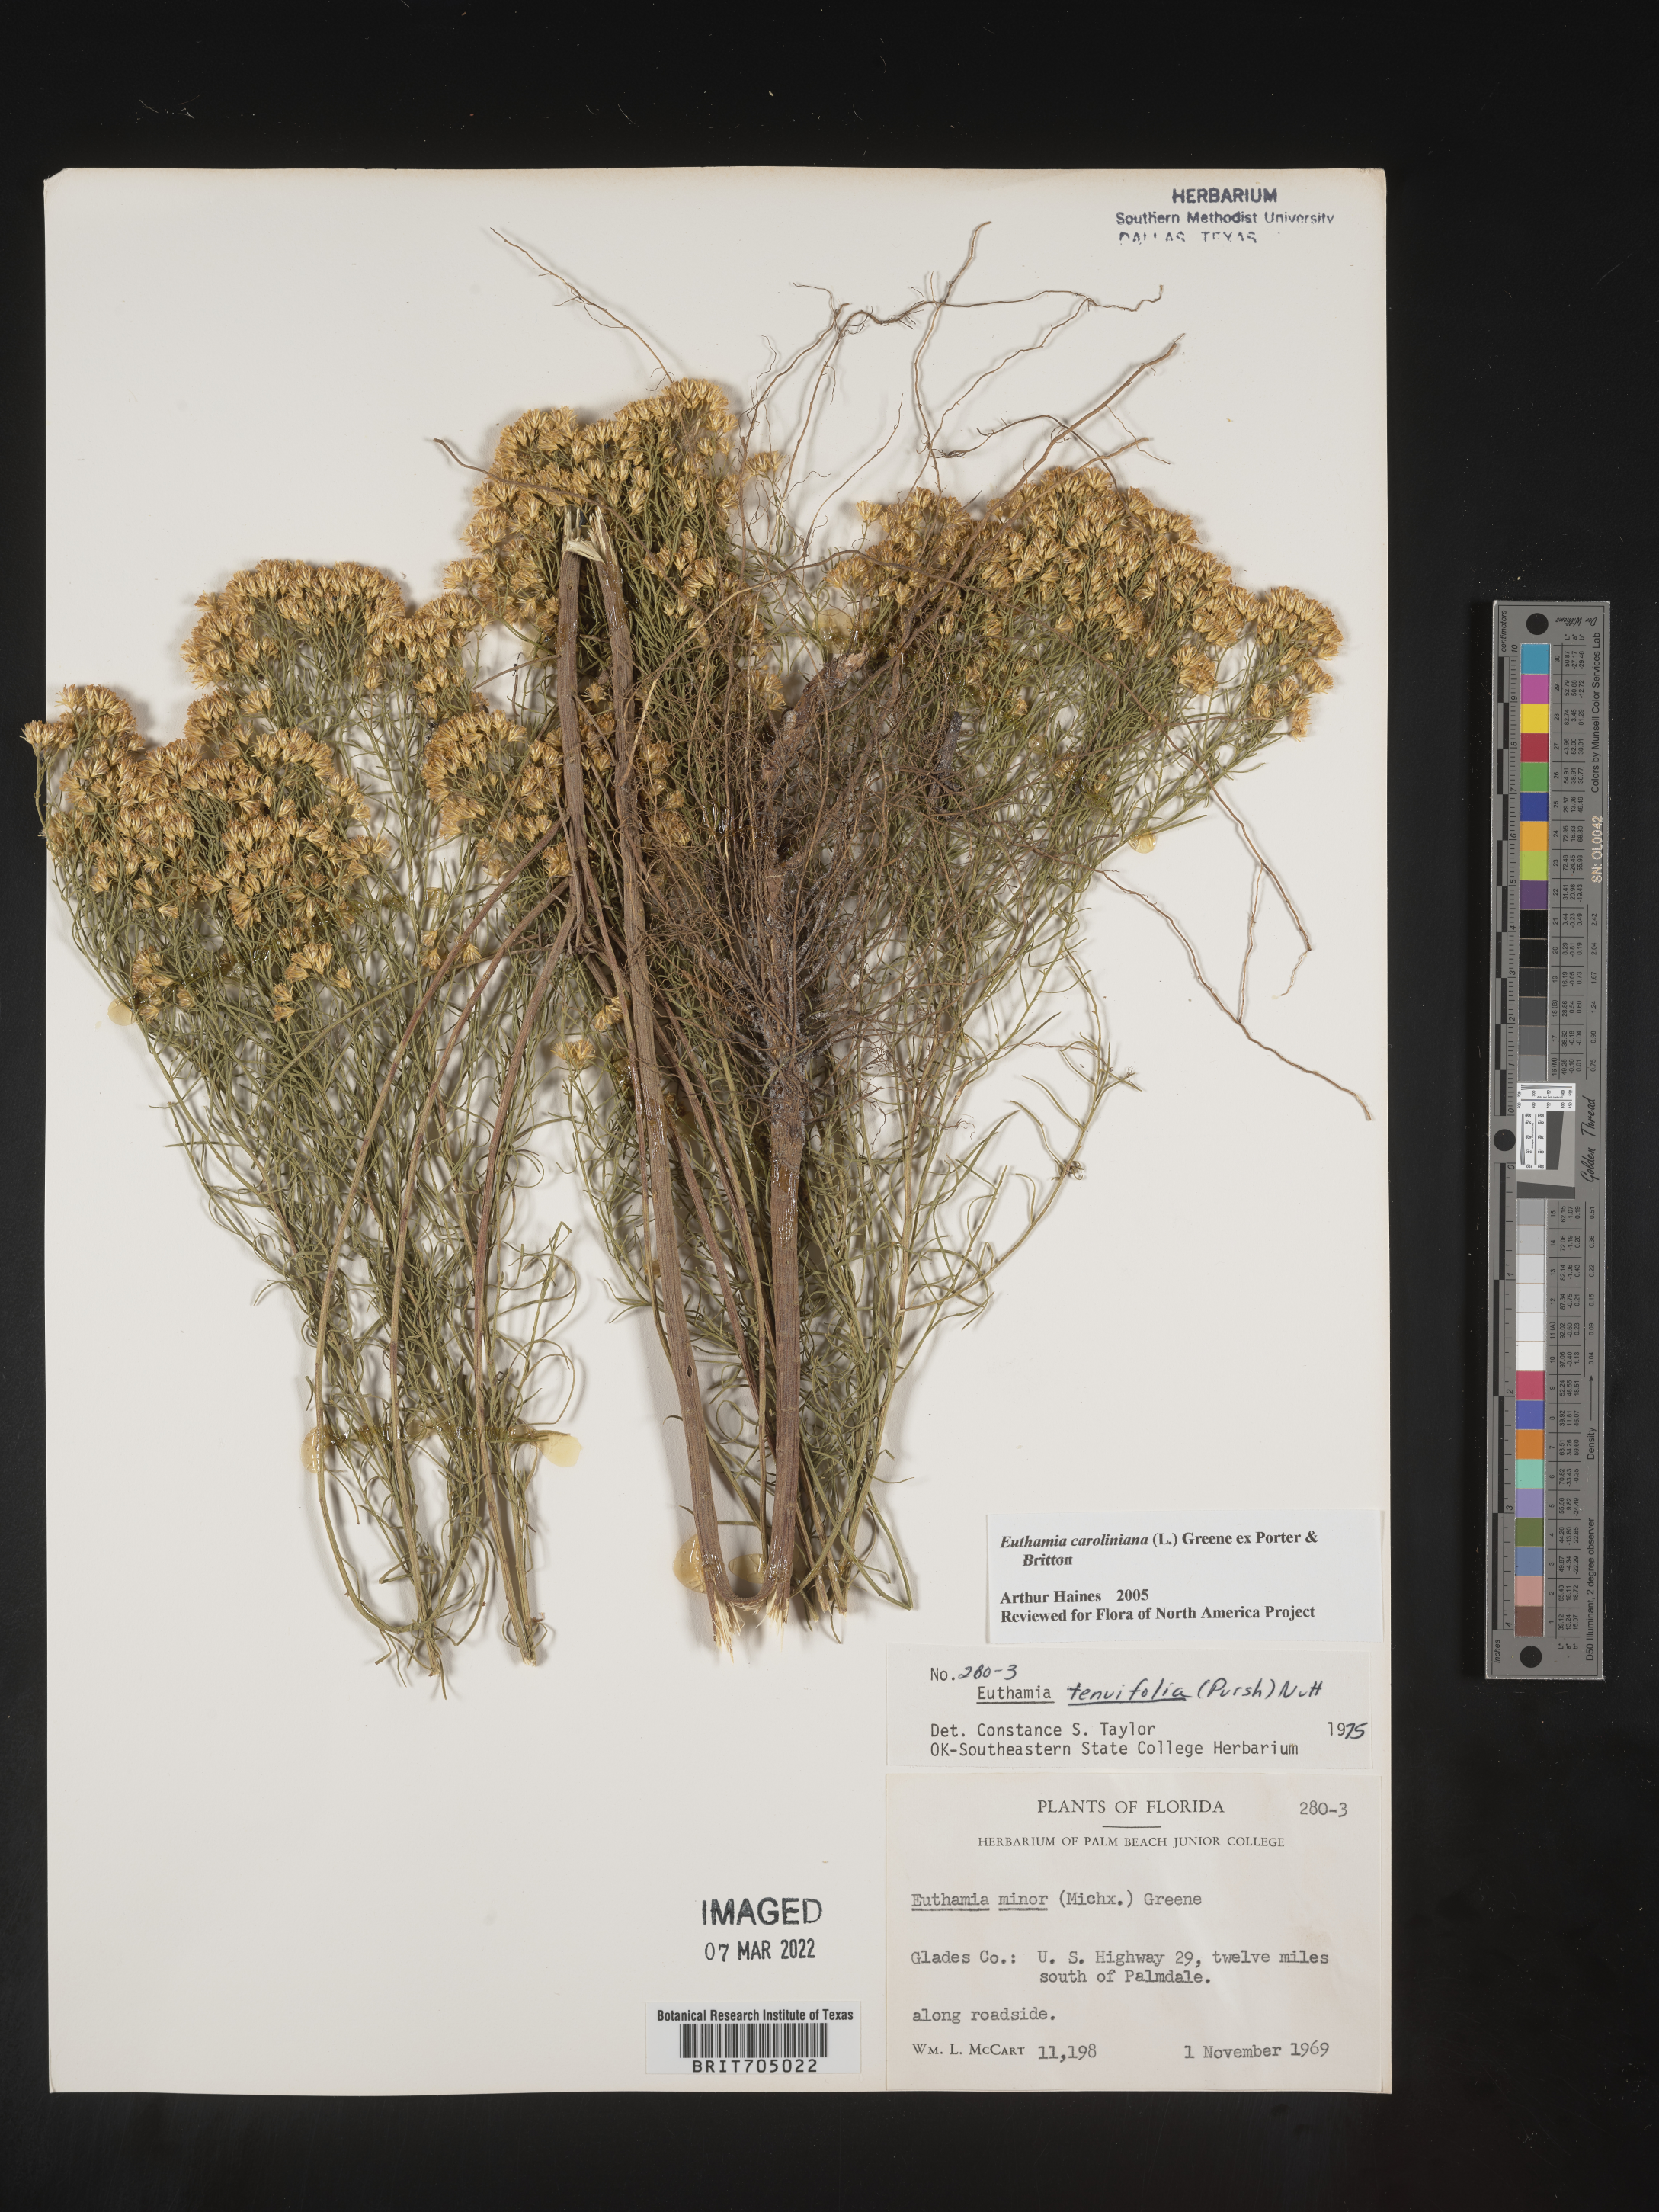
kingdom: Plantae
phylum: Tracheophyta
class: Magnoliopsida
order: Asterales
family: Asteraceae
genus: Euthamia
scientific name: Euthamia caroliniana
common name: Coastal plain goldentop
